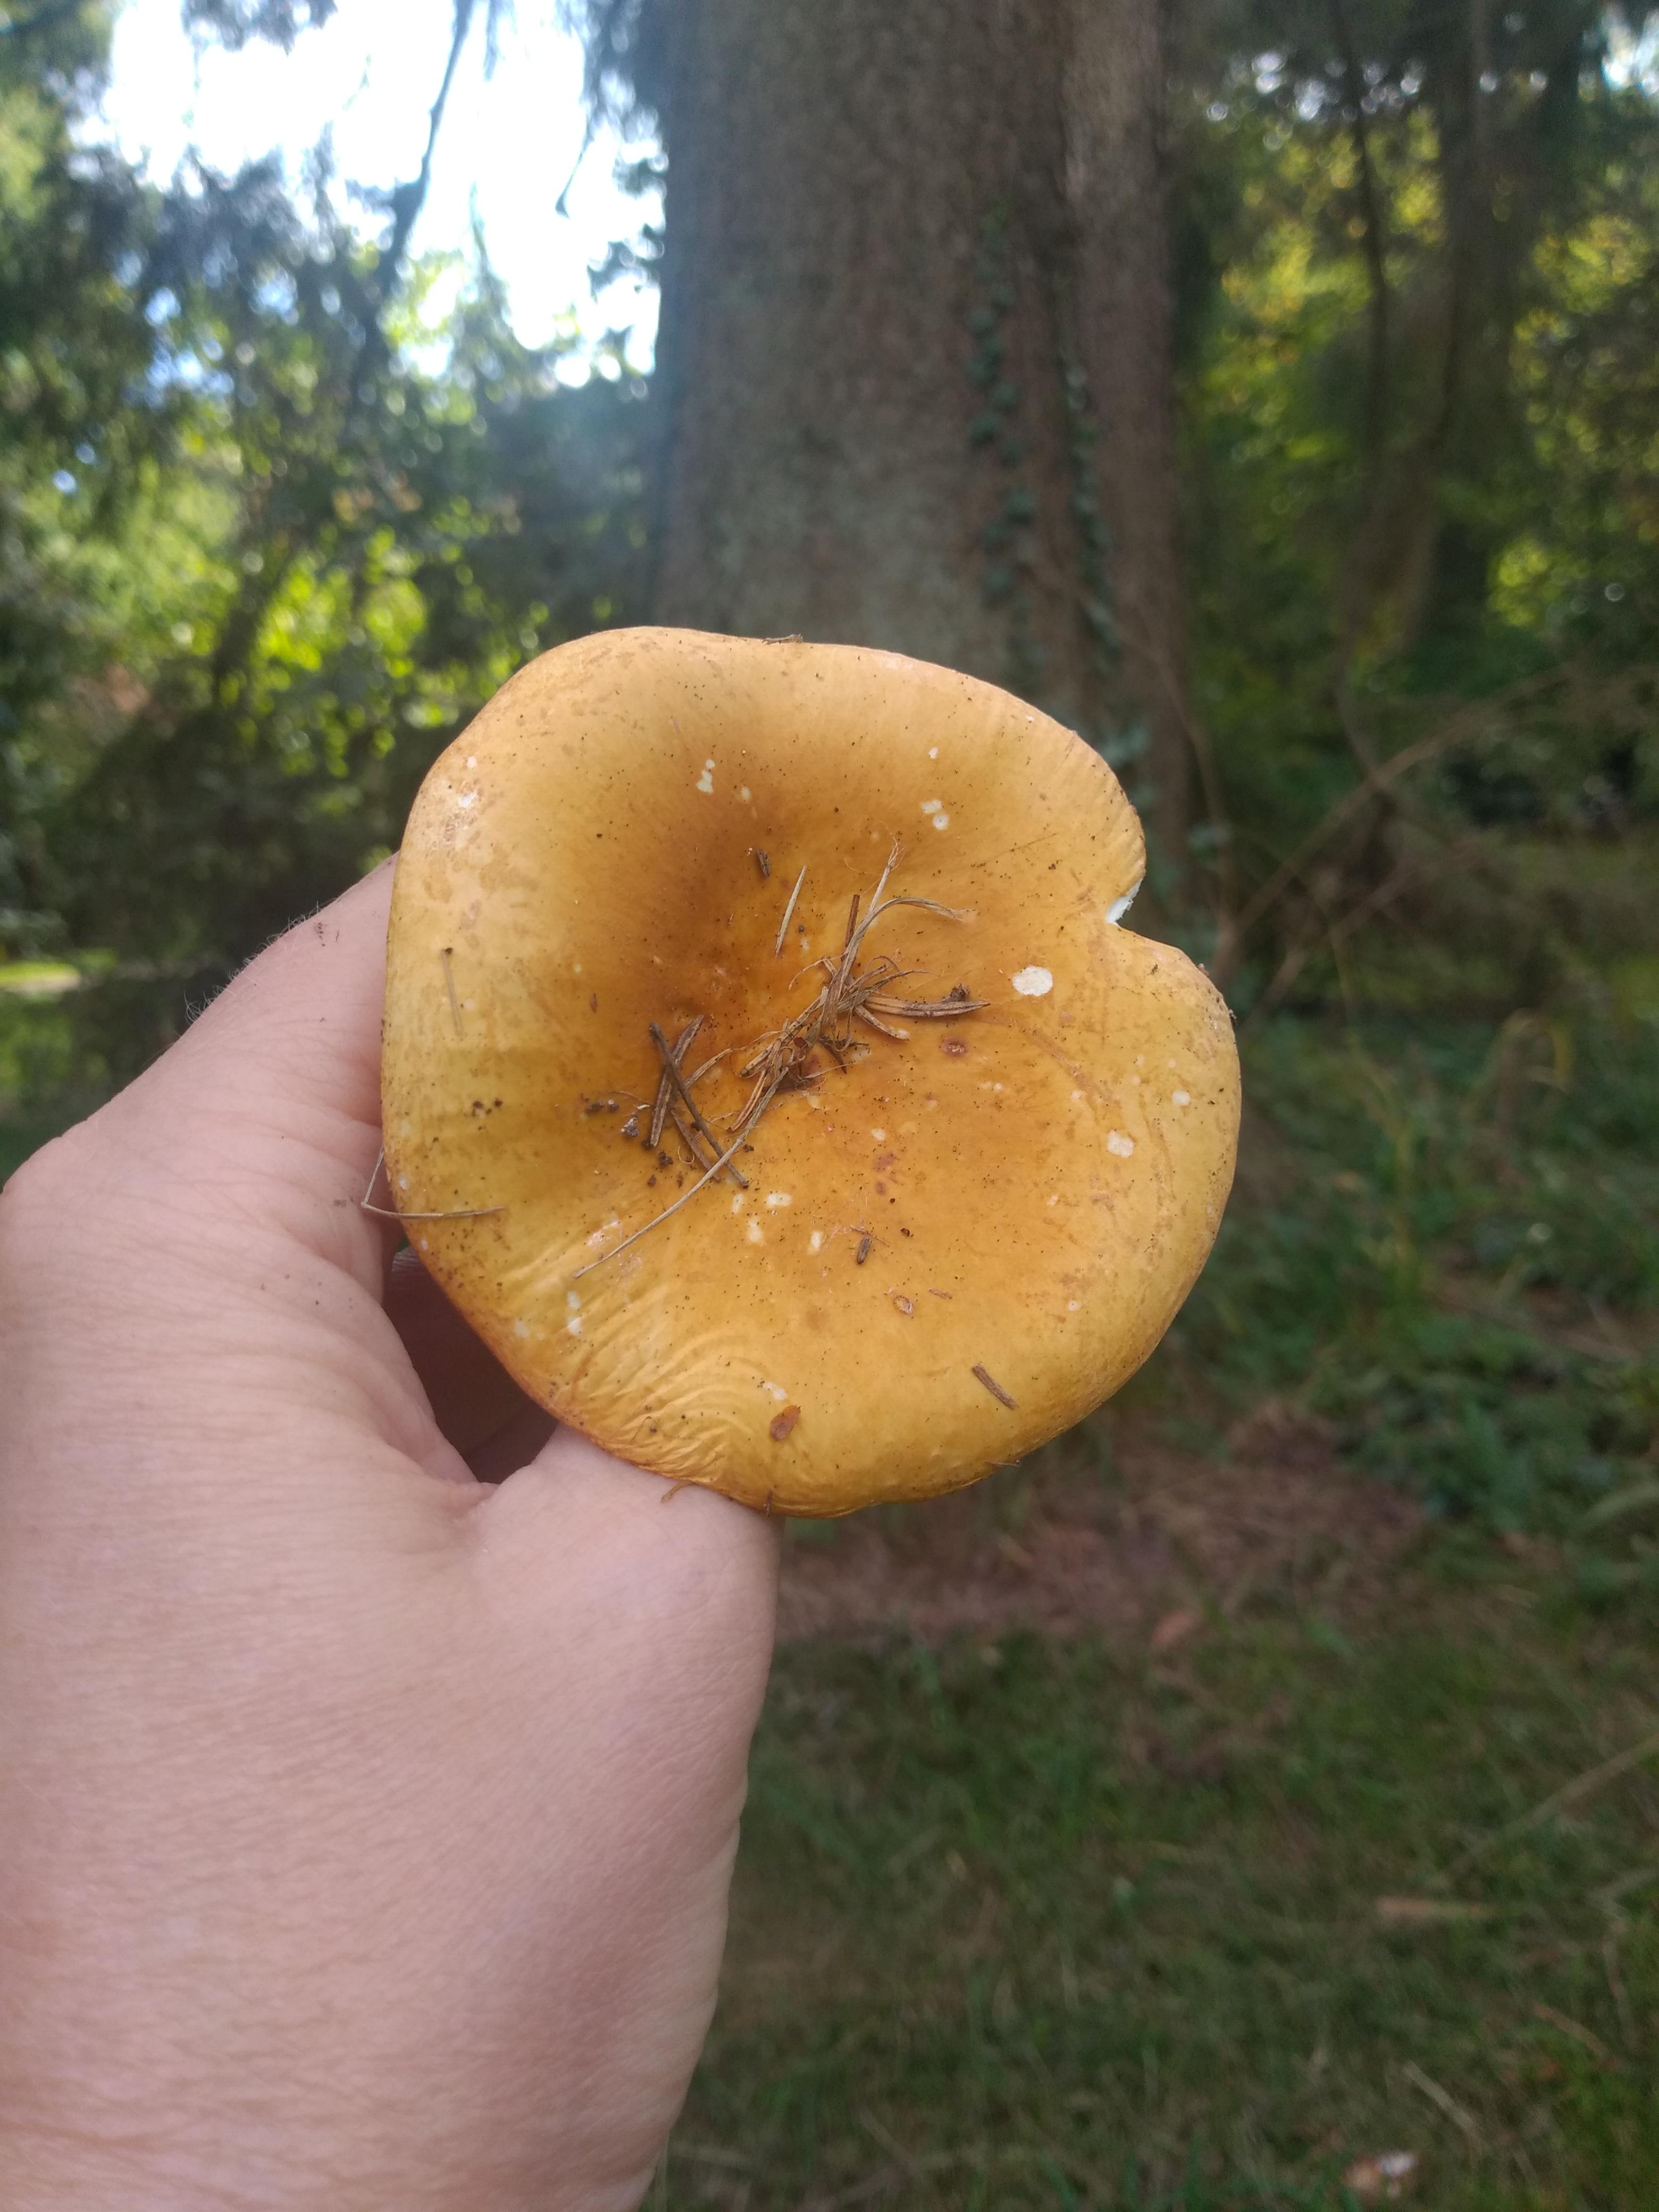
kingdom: Fungi
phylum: Basidiomycota
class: Agaricomycetes
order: Russulales
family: Russulaceae
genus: Russula
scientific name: Russula ochroleuca
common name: okkergul skørhat
